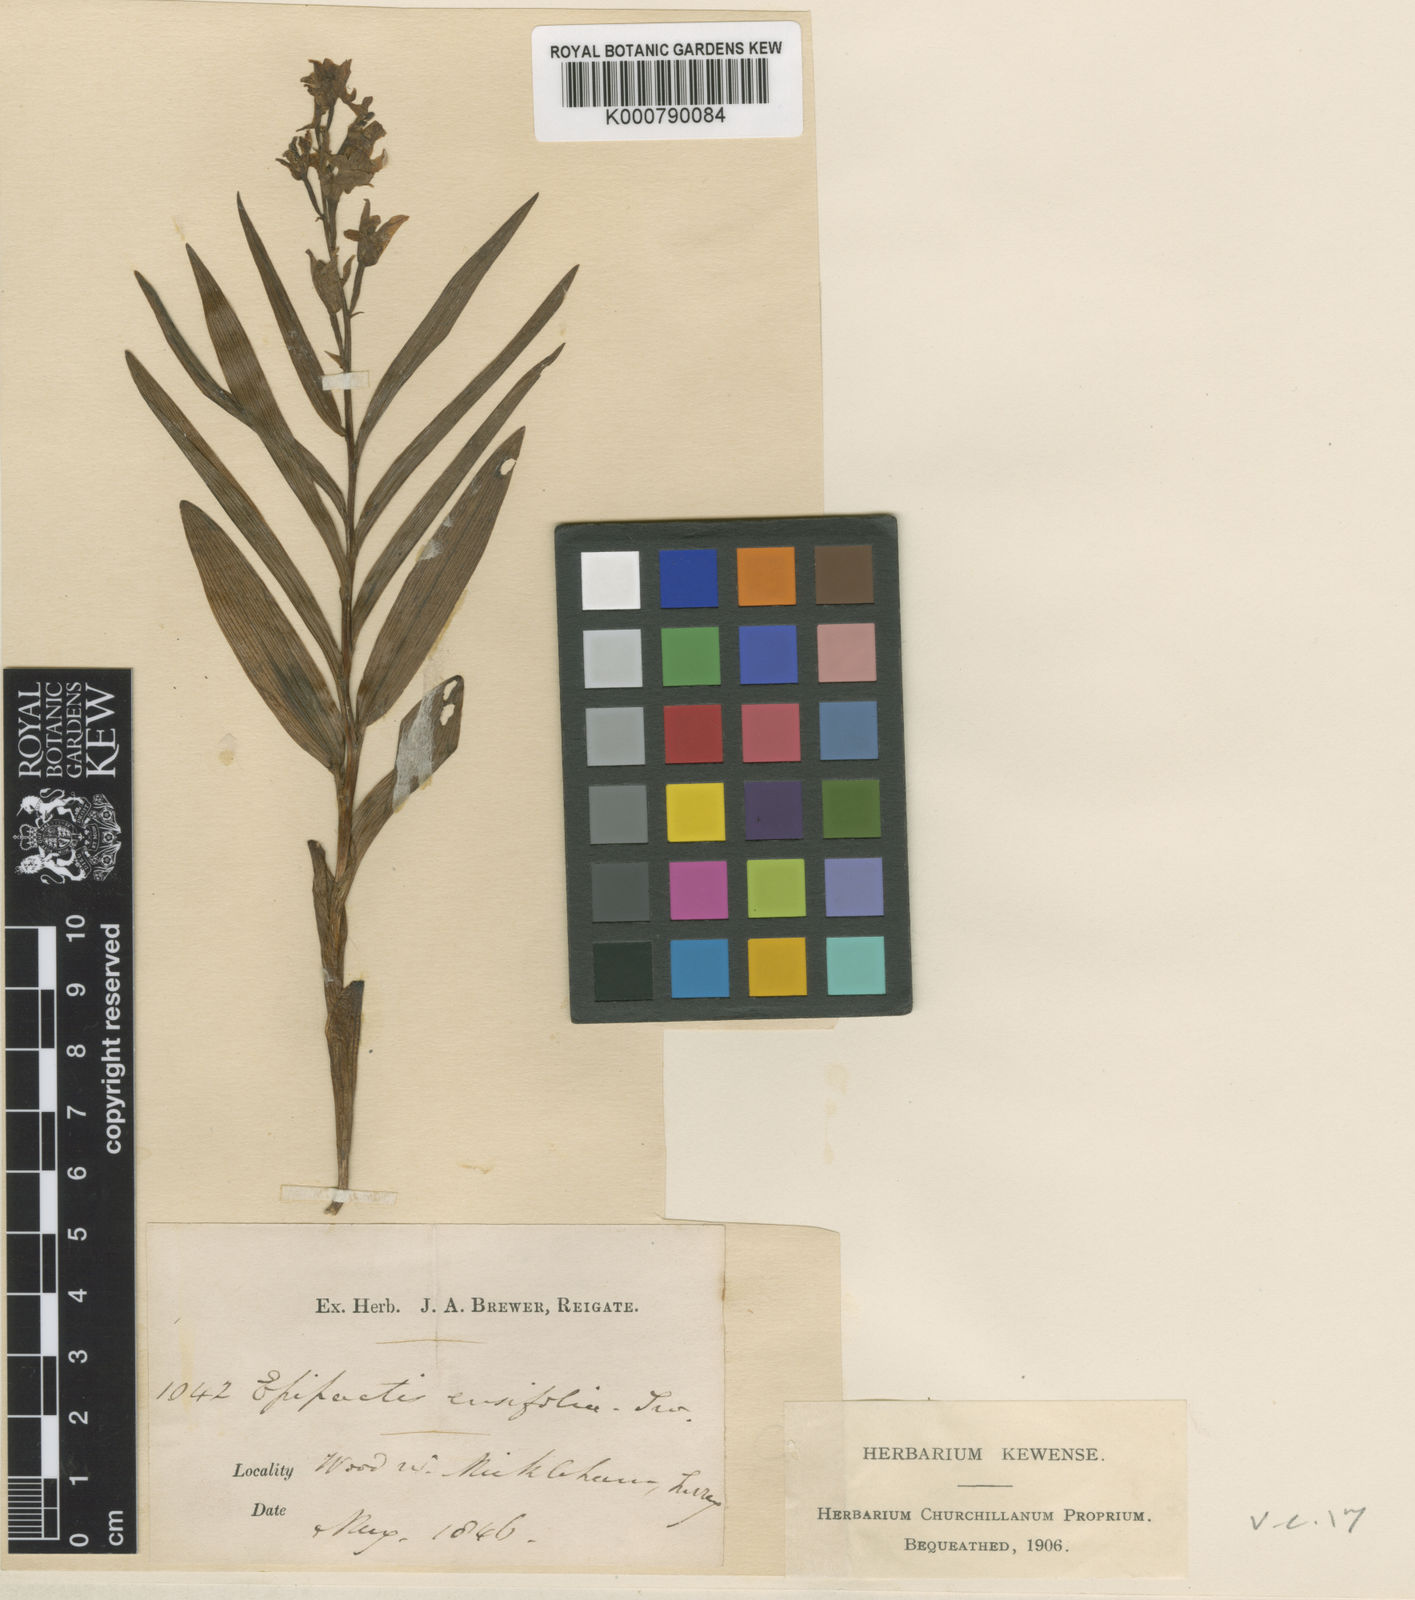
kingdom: Plantae
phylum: Tracheophyta
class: Liliopsida
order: Asparagales
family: Orchidaceae
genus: Cephalanthera
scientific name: Cephalanthera longifolia
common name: Narrow-leaved helleborine
